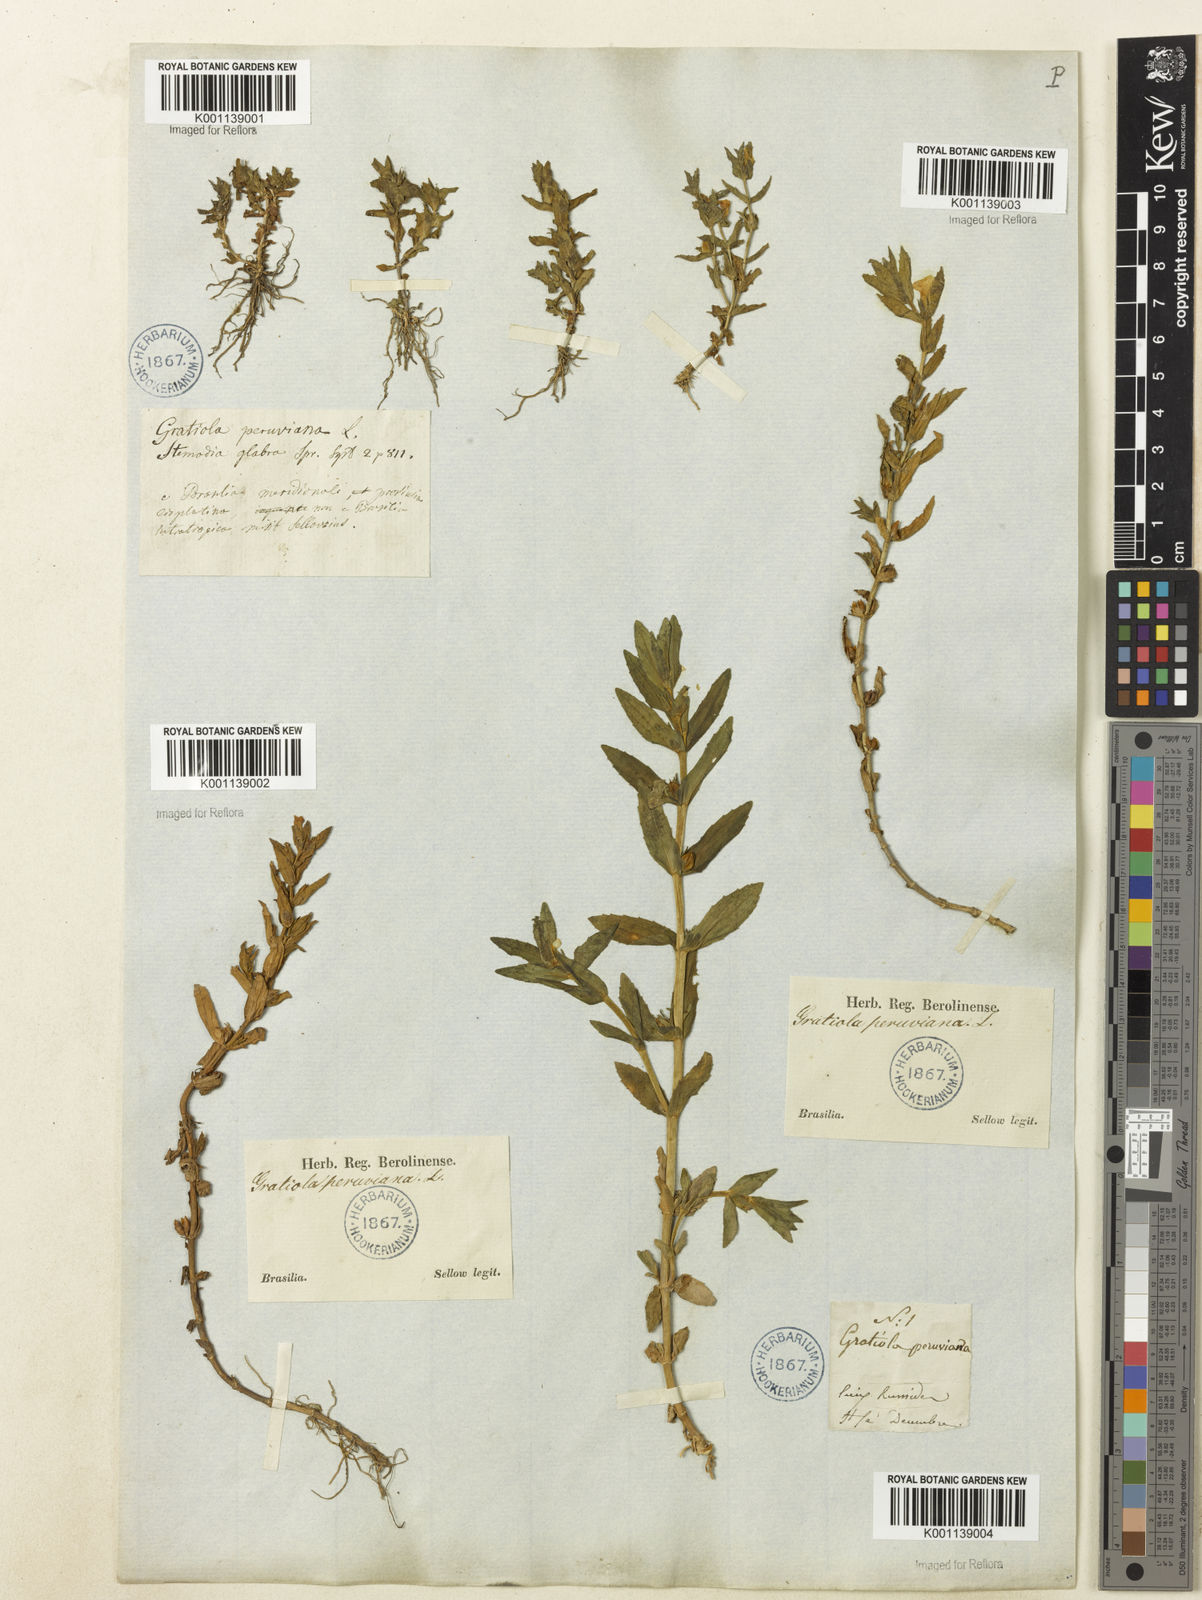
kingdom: Plantae
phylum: Tracheophyta
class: Magnoliopsida
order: Lamiales
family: Plantaginaceae
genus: Gratiola
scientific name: Gratiola peruviana
